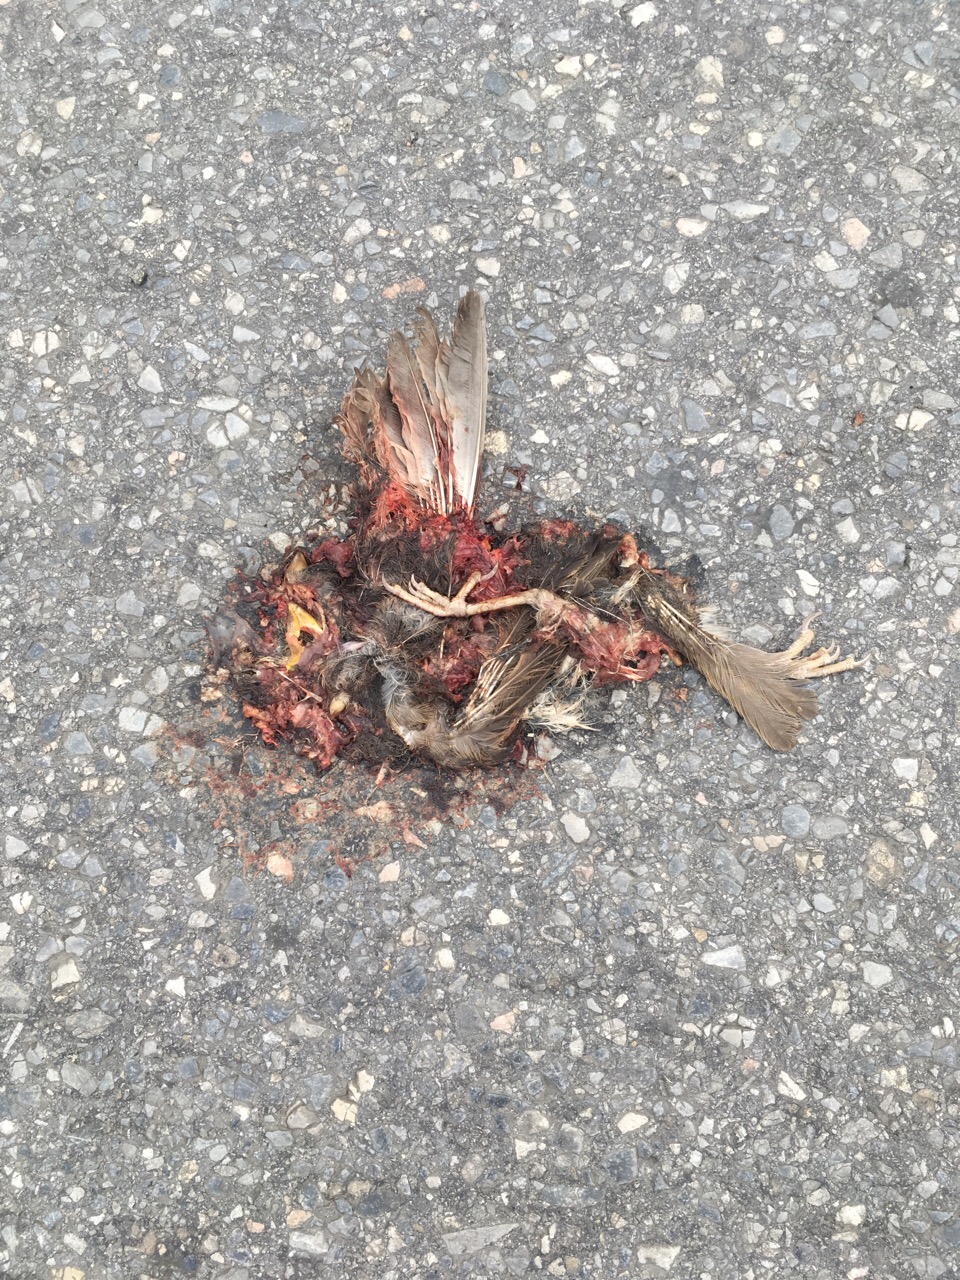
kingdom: Animalia
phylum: Chordata
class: Aves
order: Passeriformes
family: Passeridae
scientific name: Passeridae
